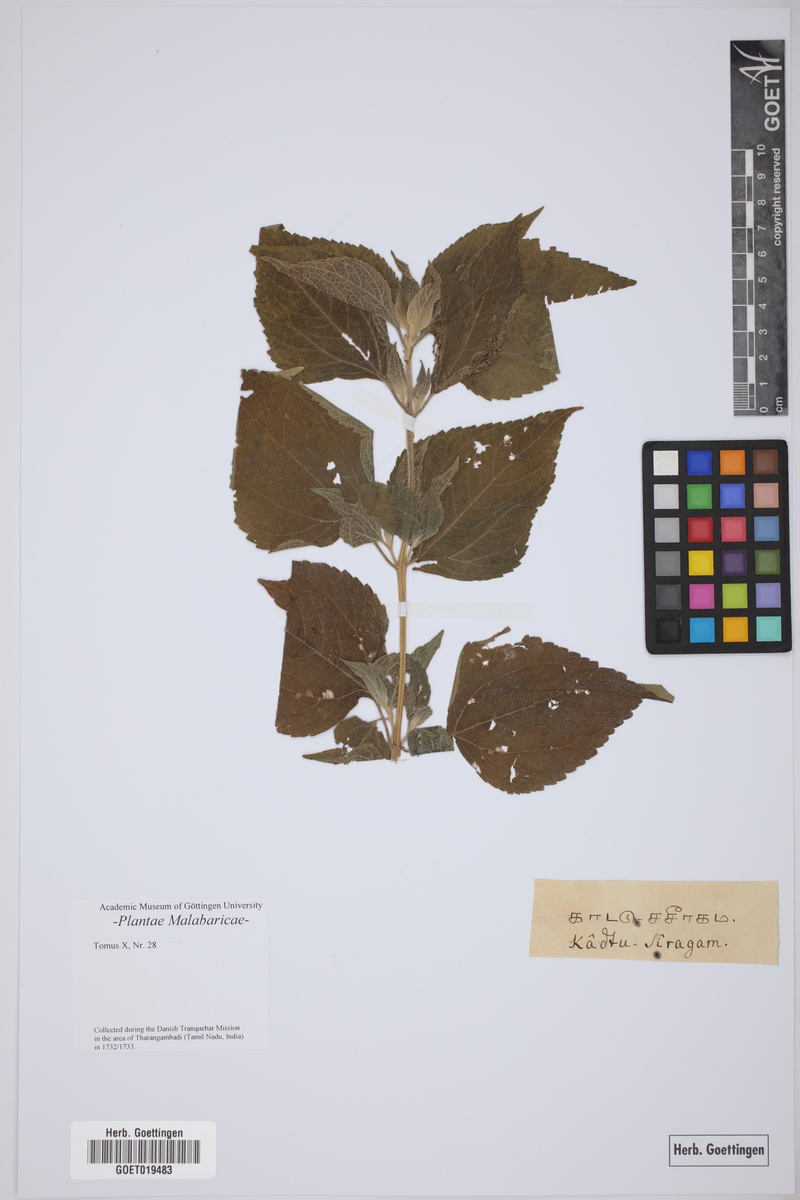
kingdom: Plantae
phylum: Tracheophyta
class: Magnoliopsida
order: Asterales
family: Asteraceae
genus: Baccharoides
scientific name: Baccharoides anthelmintica
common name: Kinka-oil
